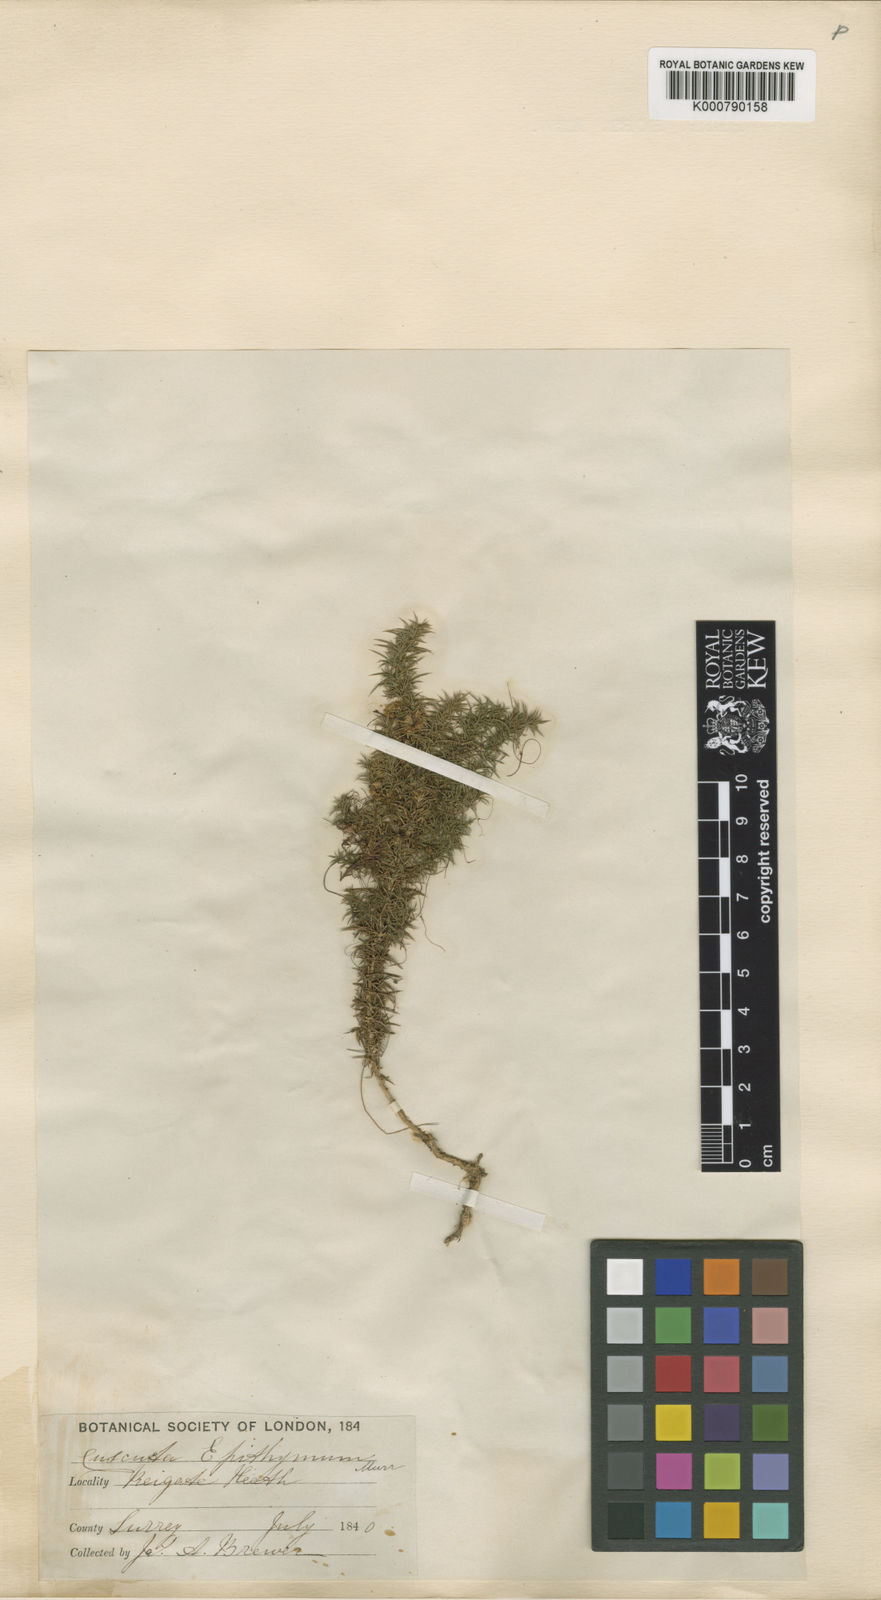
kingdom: Plantae
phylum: Tracheophyta
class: Magnoliopsida
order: Solanales
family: Convolvulaceae
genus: Cuscuta
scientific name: Cuscuta epithymum
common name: Clover dodder
